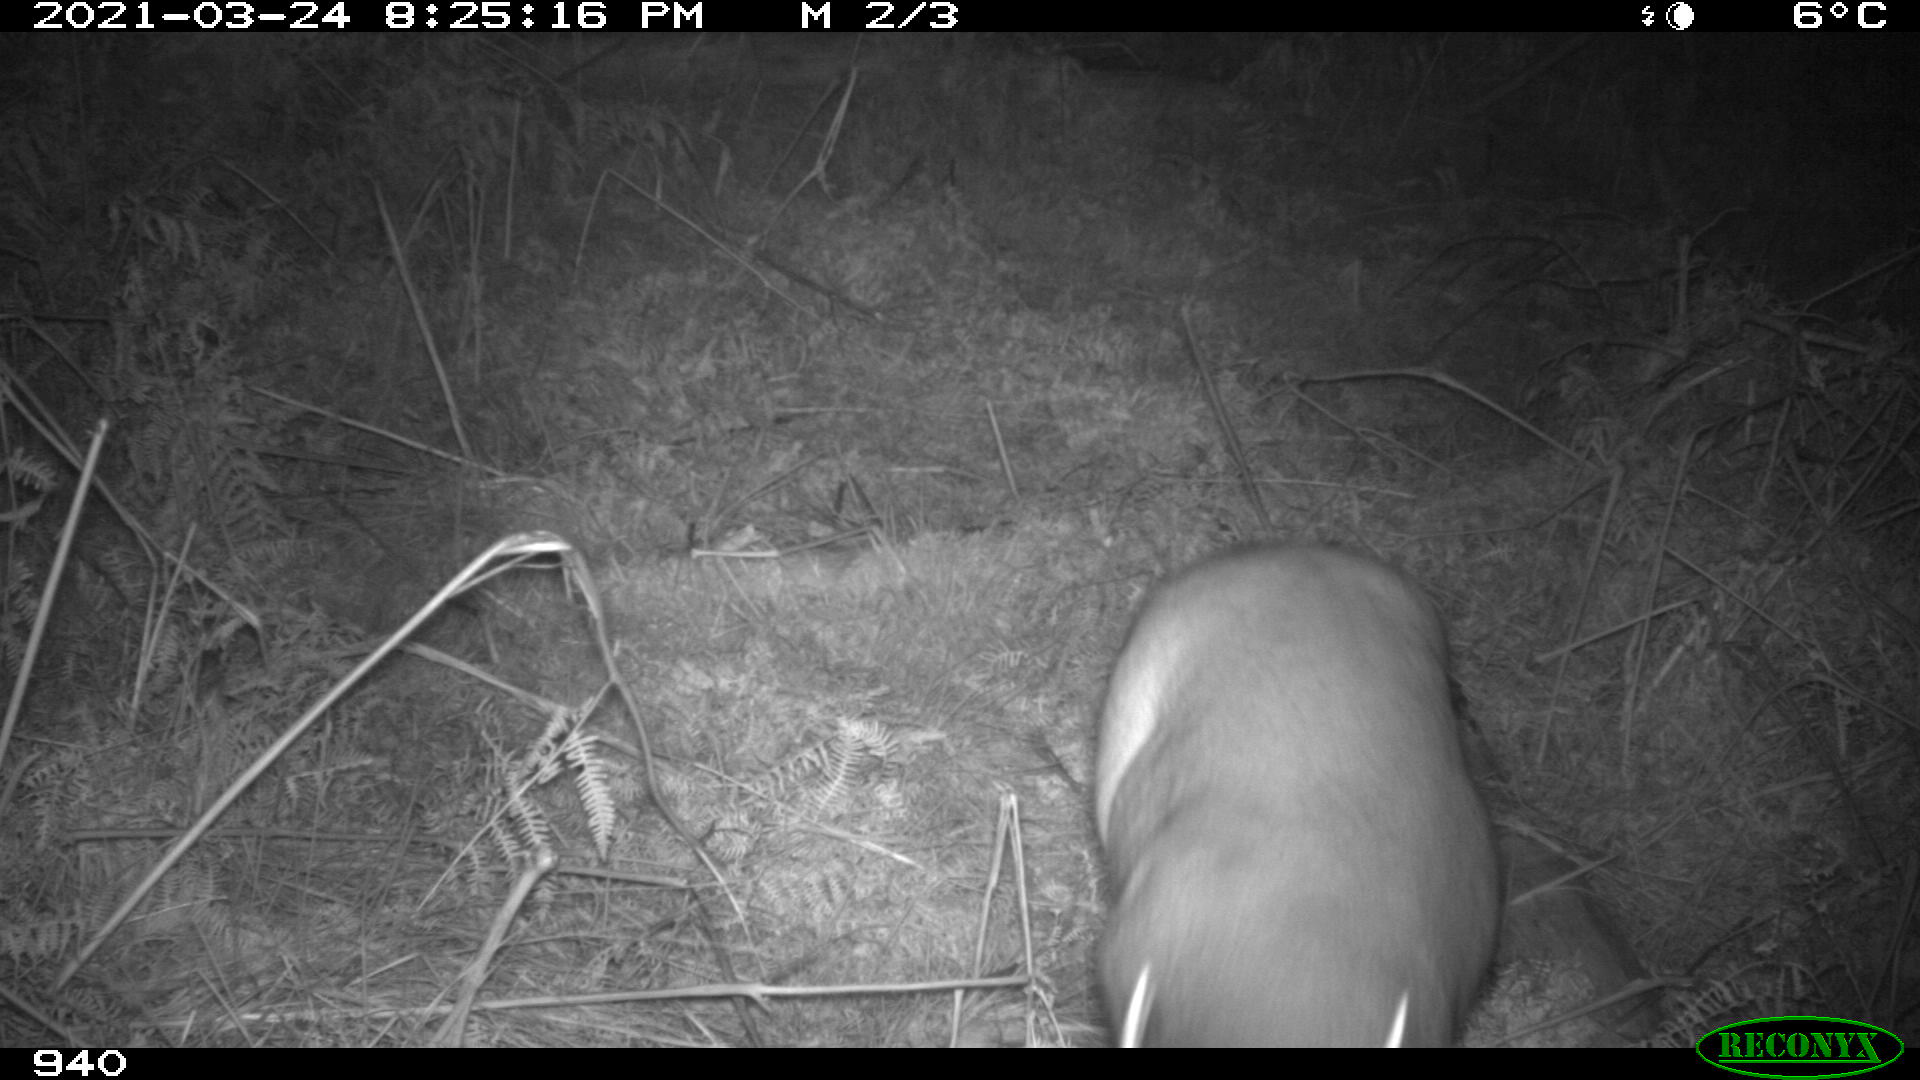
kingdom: Animalia
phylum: Chordata
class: Mammalia
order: Artiodactyla
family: Cervidae
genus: Capreolus
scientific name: Capreolus capreolus
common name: Western roe deer
